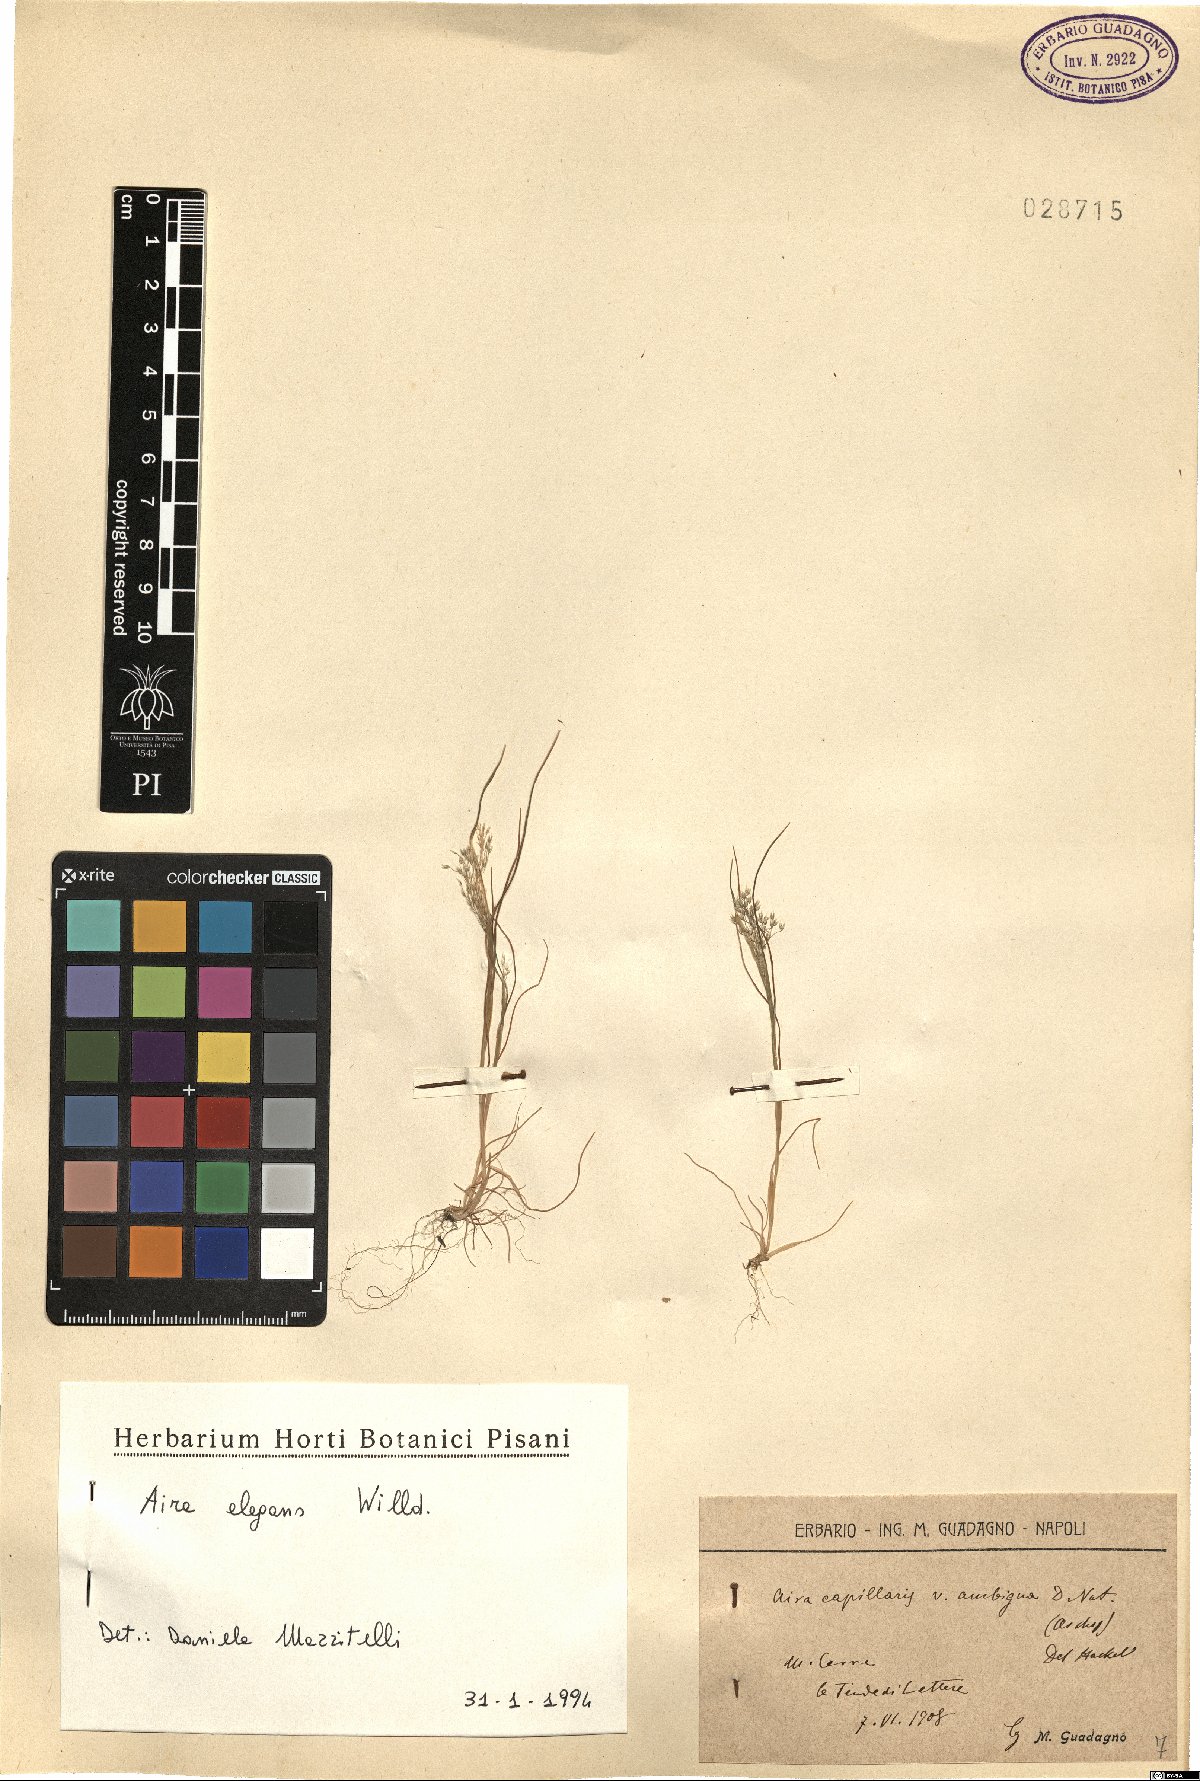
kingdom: Plantae
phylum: Tracheophyta
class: Liliopsida
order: Poales
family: Poaceae
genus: Aira
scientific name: Aira elegans
